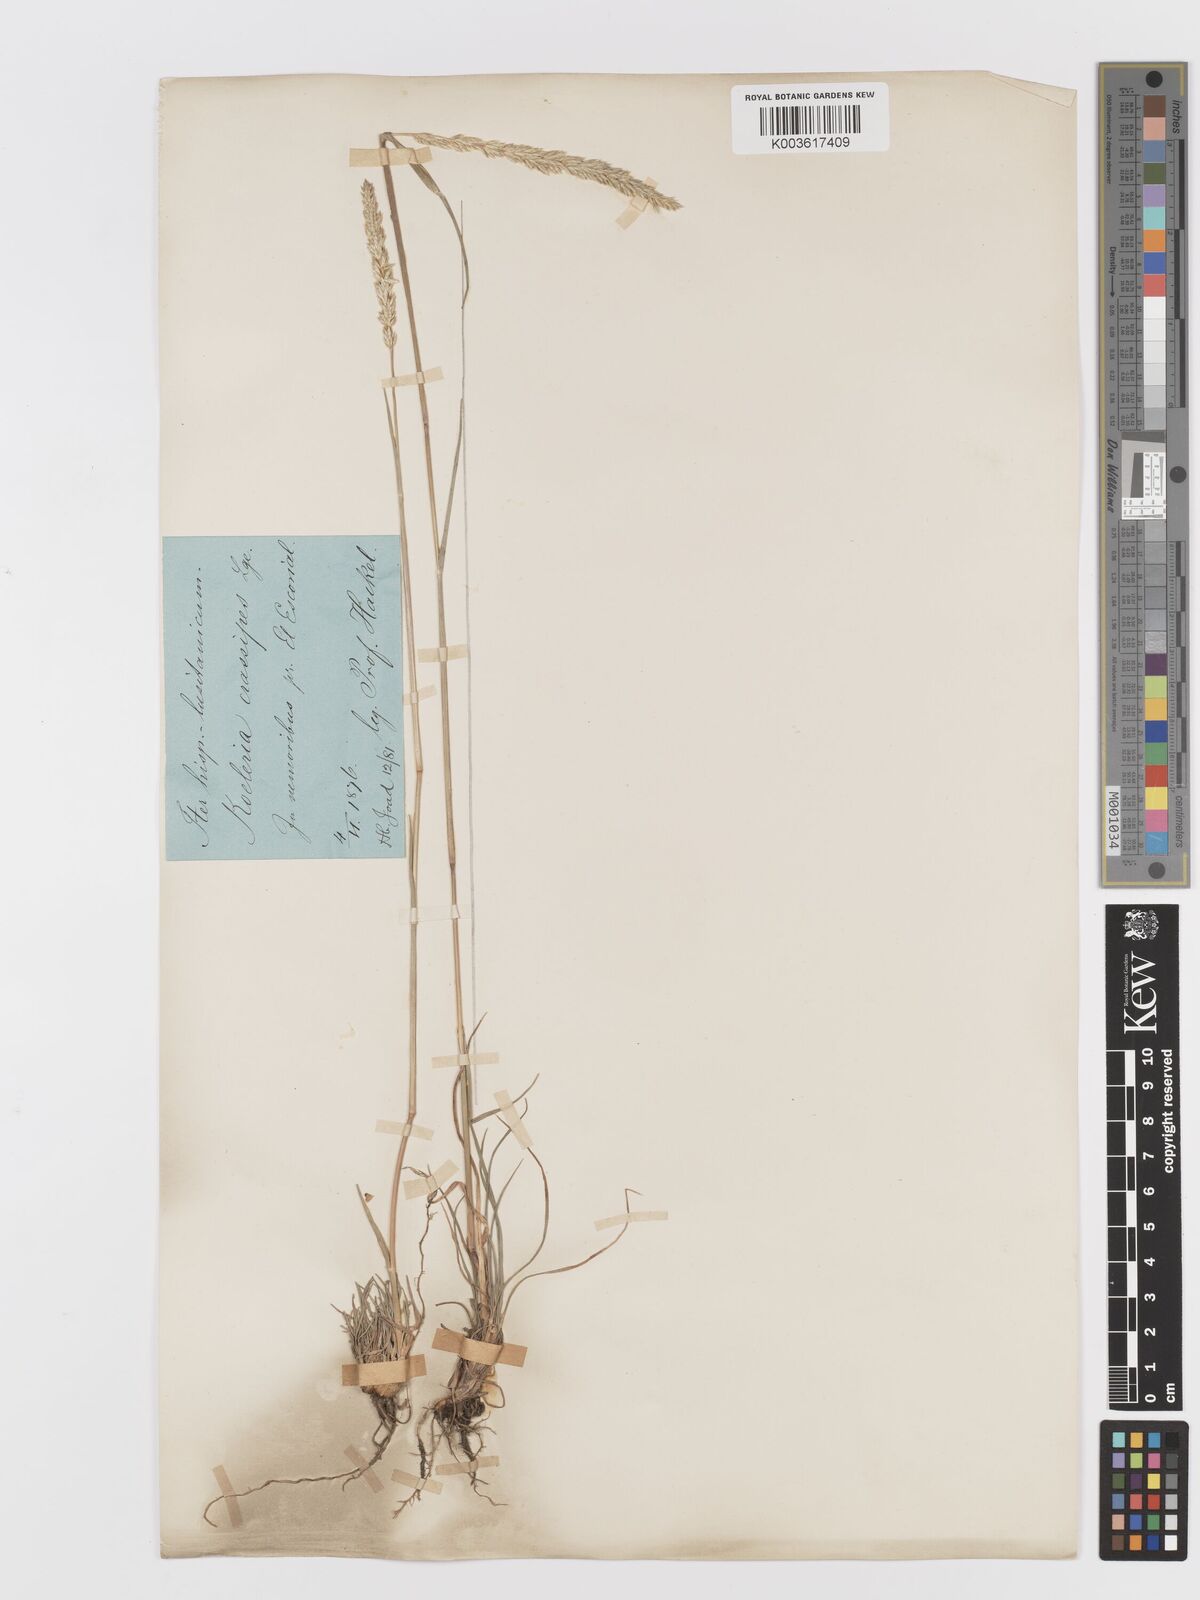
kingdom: Plantae
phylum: Tracheophyta
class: Liliopsida
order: Poales
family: Poaceae
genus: Koeleria
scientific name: Koeleria crassipes
